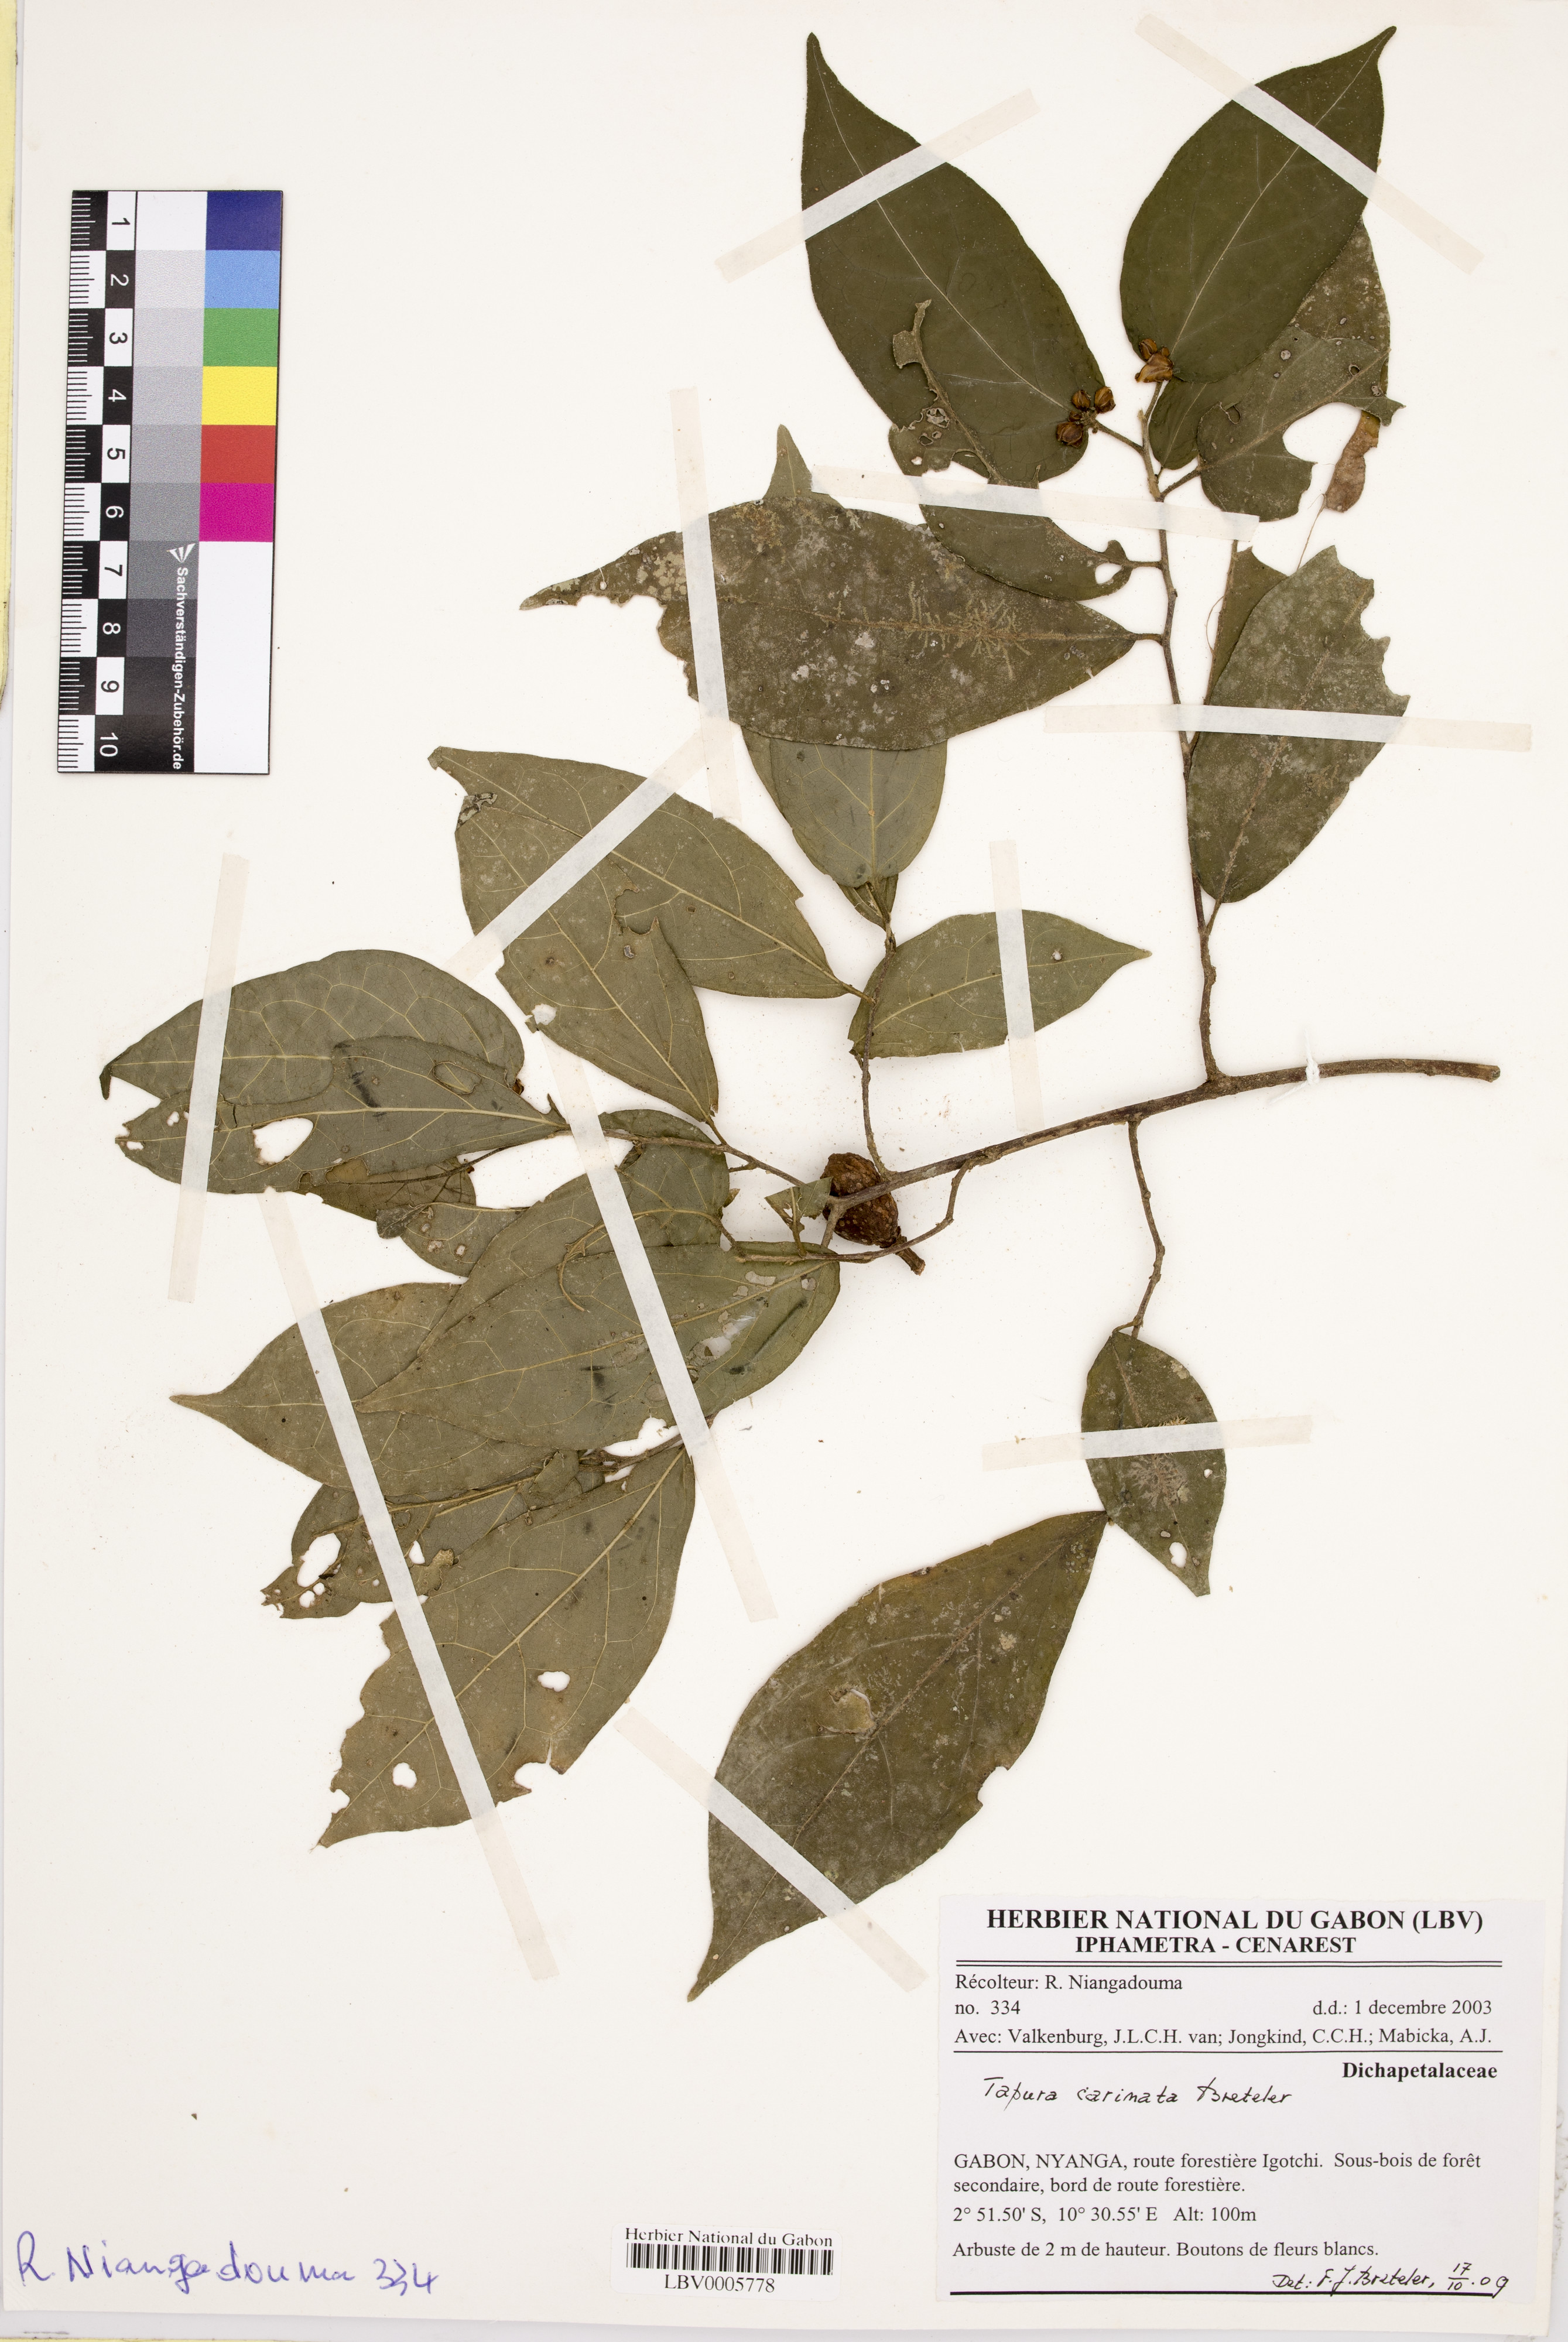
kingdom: Plantae
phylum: Tracheophyta
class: Magnoliopsida
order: Malpighiales
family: Dichapetalaceae
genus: Tapura
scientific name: Tapura carinata
